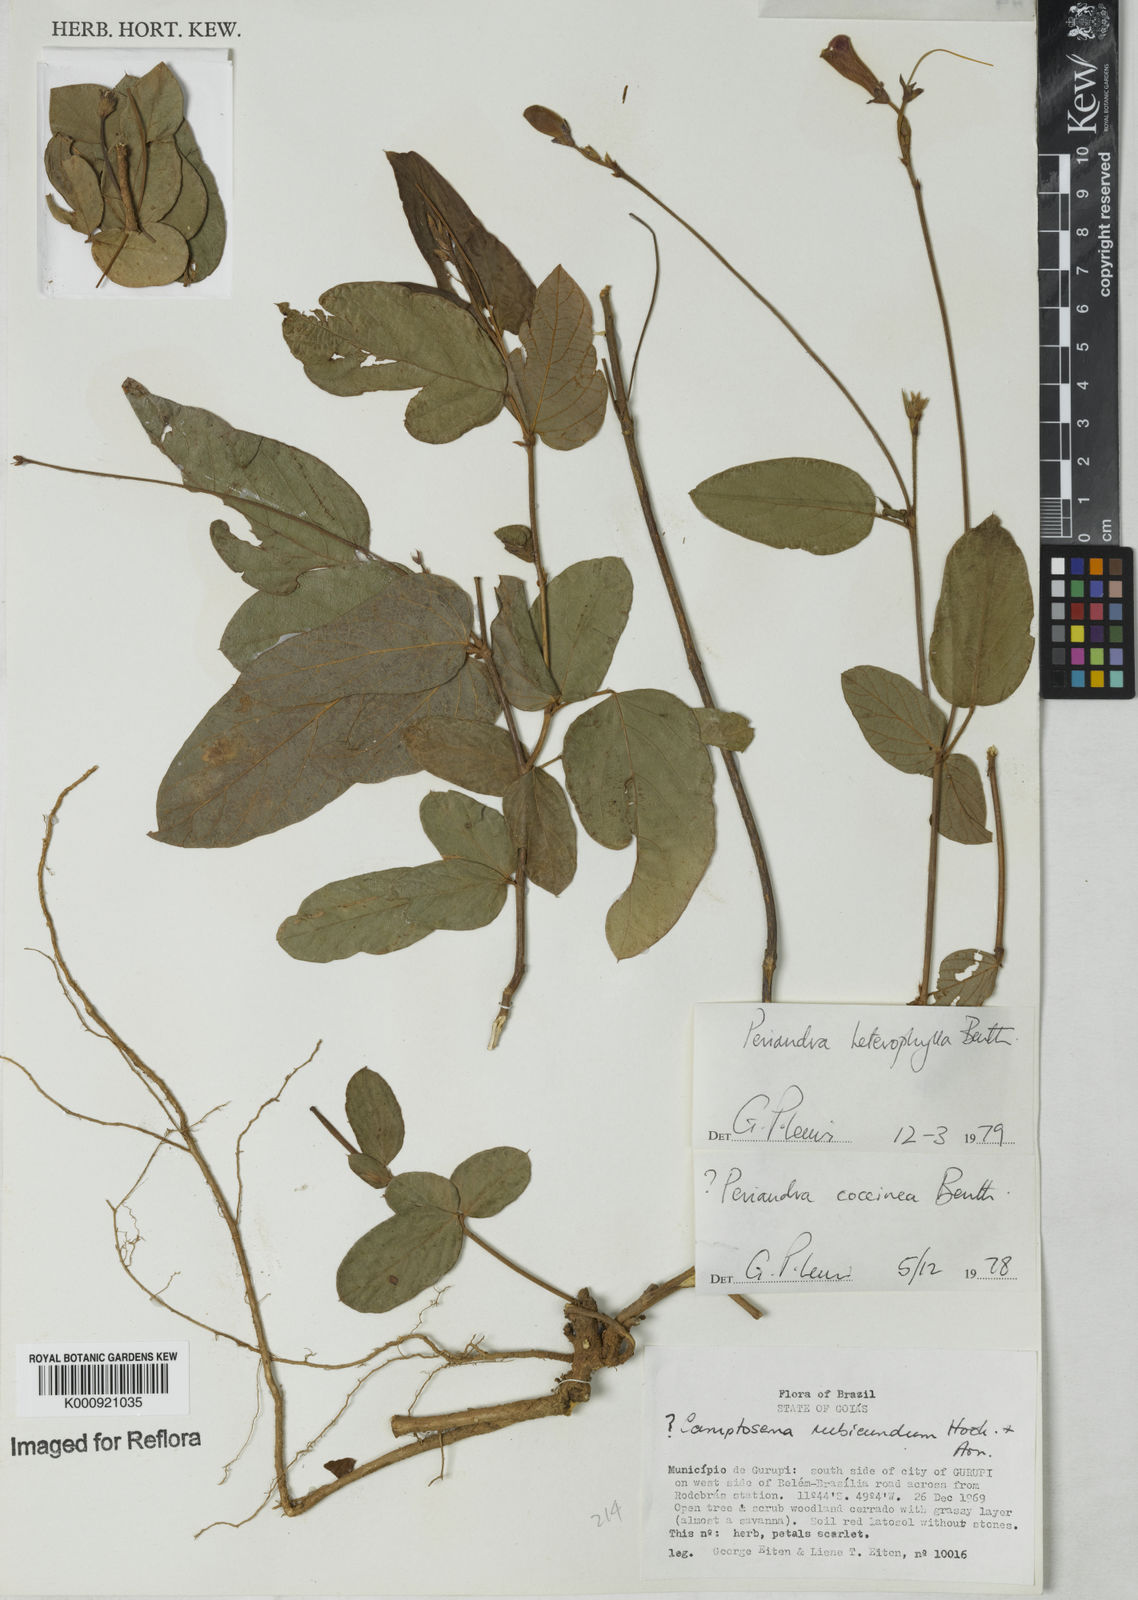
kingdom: Plantae
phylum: Tracheophyta
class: Magnoliopsida
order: Fabales
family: Fabaceae
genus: Periandra
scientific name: Periandra heterophylla
